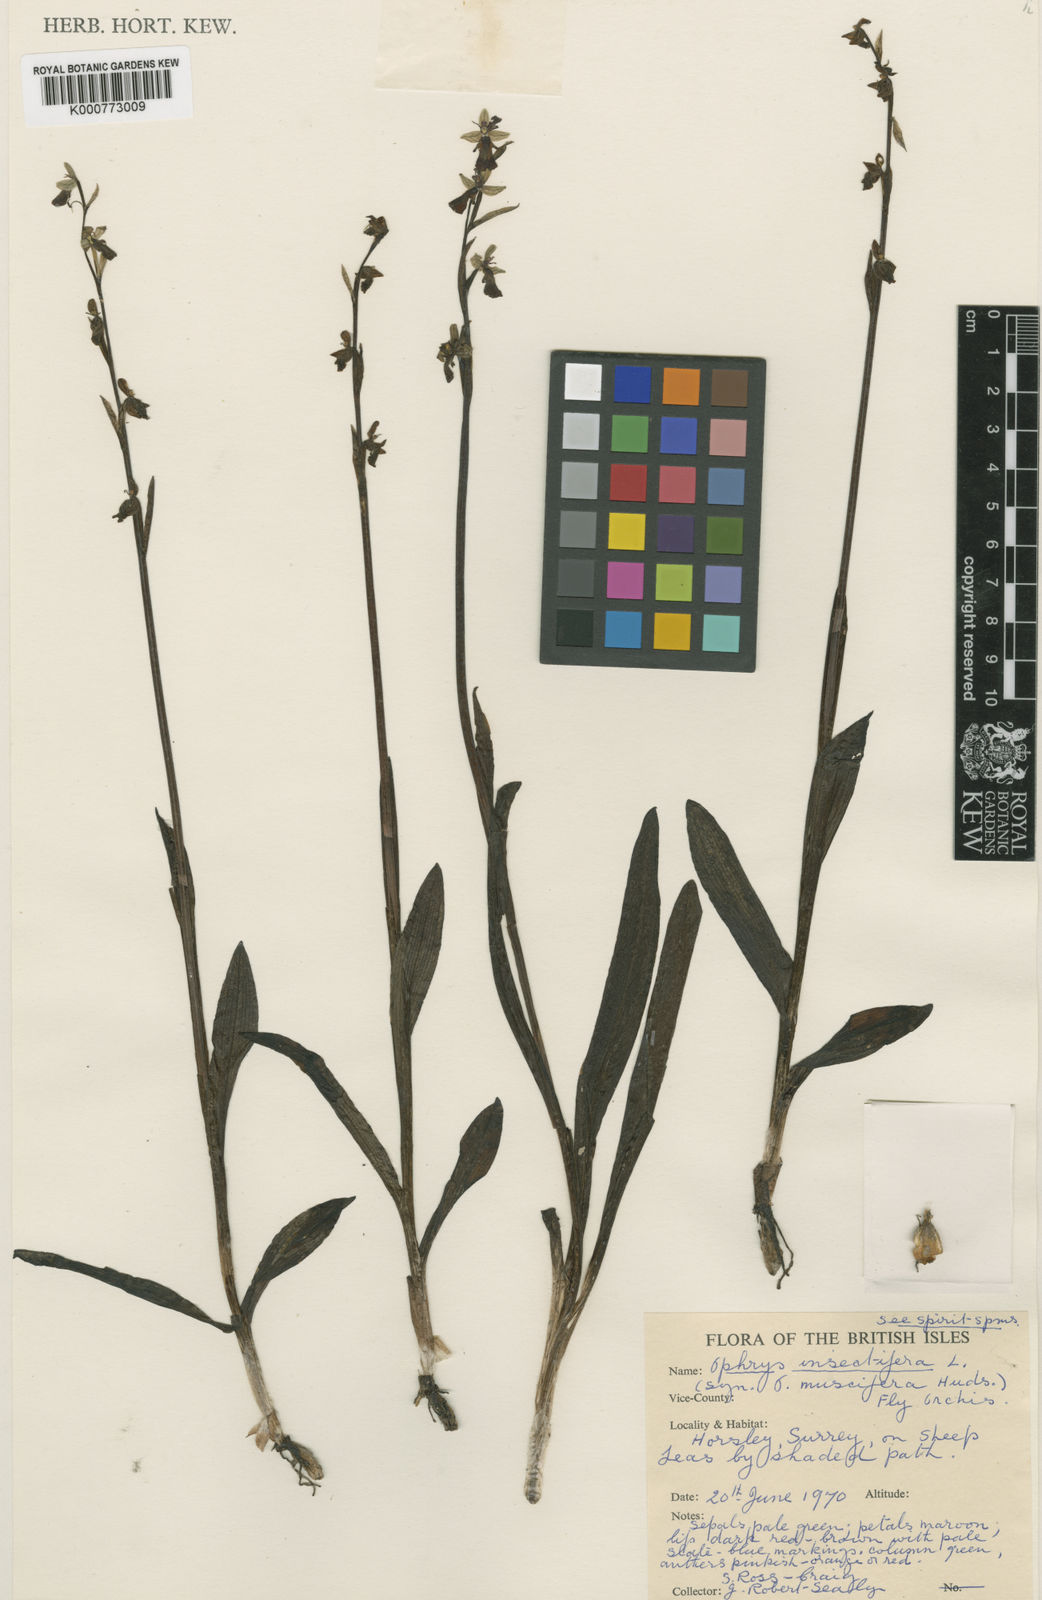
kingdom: Plantae
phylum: Tracheophyta
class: Liliopsida
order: Asparagales
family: Orchidaceae
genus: Ophrys
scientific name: Ophrys insectifera
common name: Fly orchid
